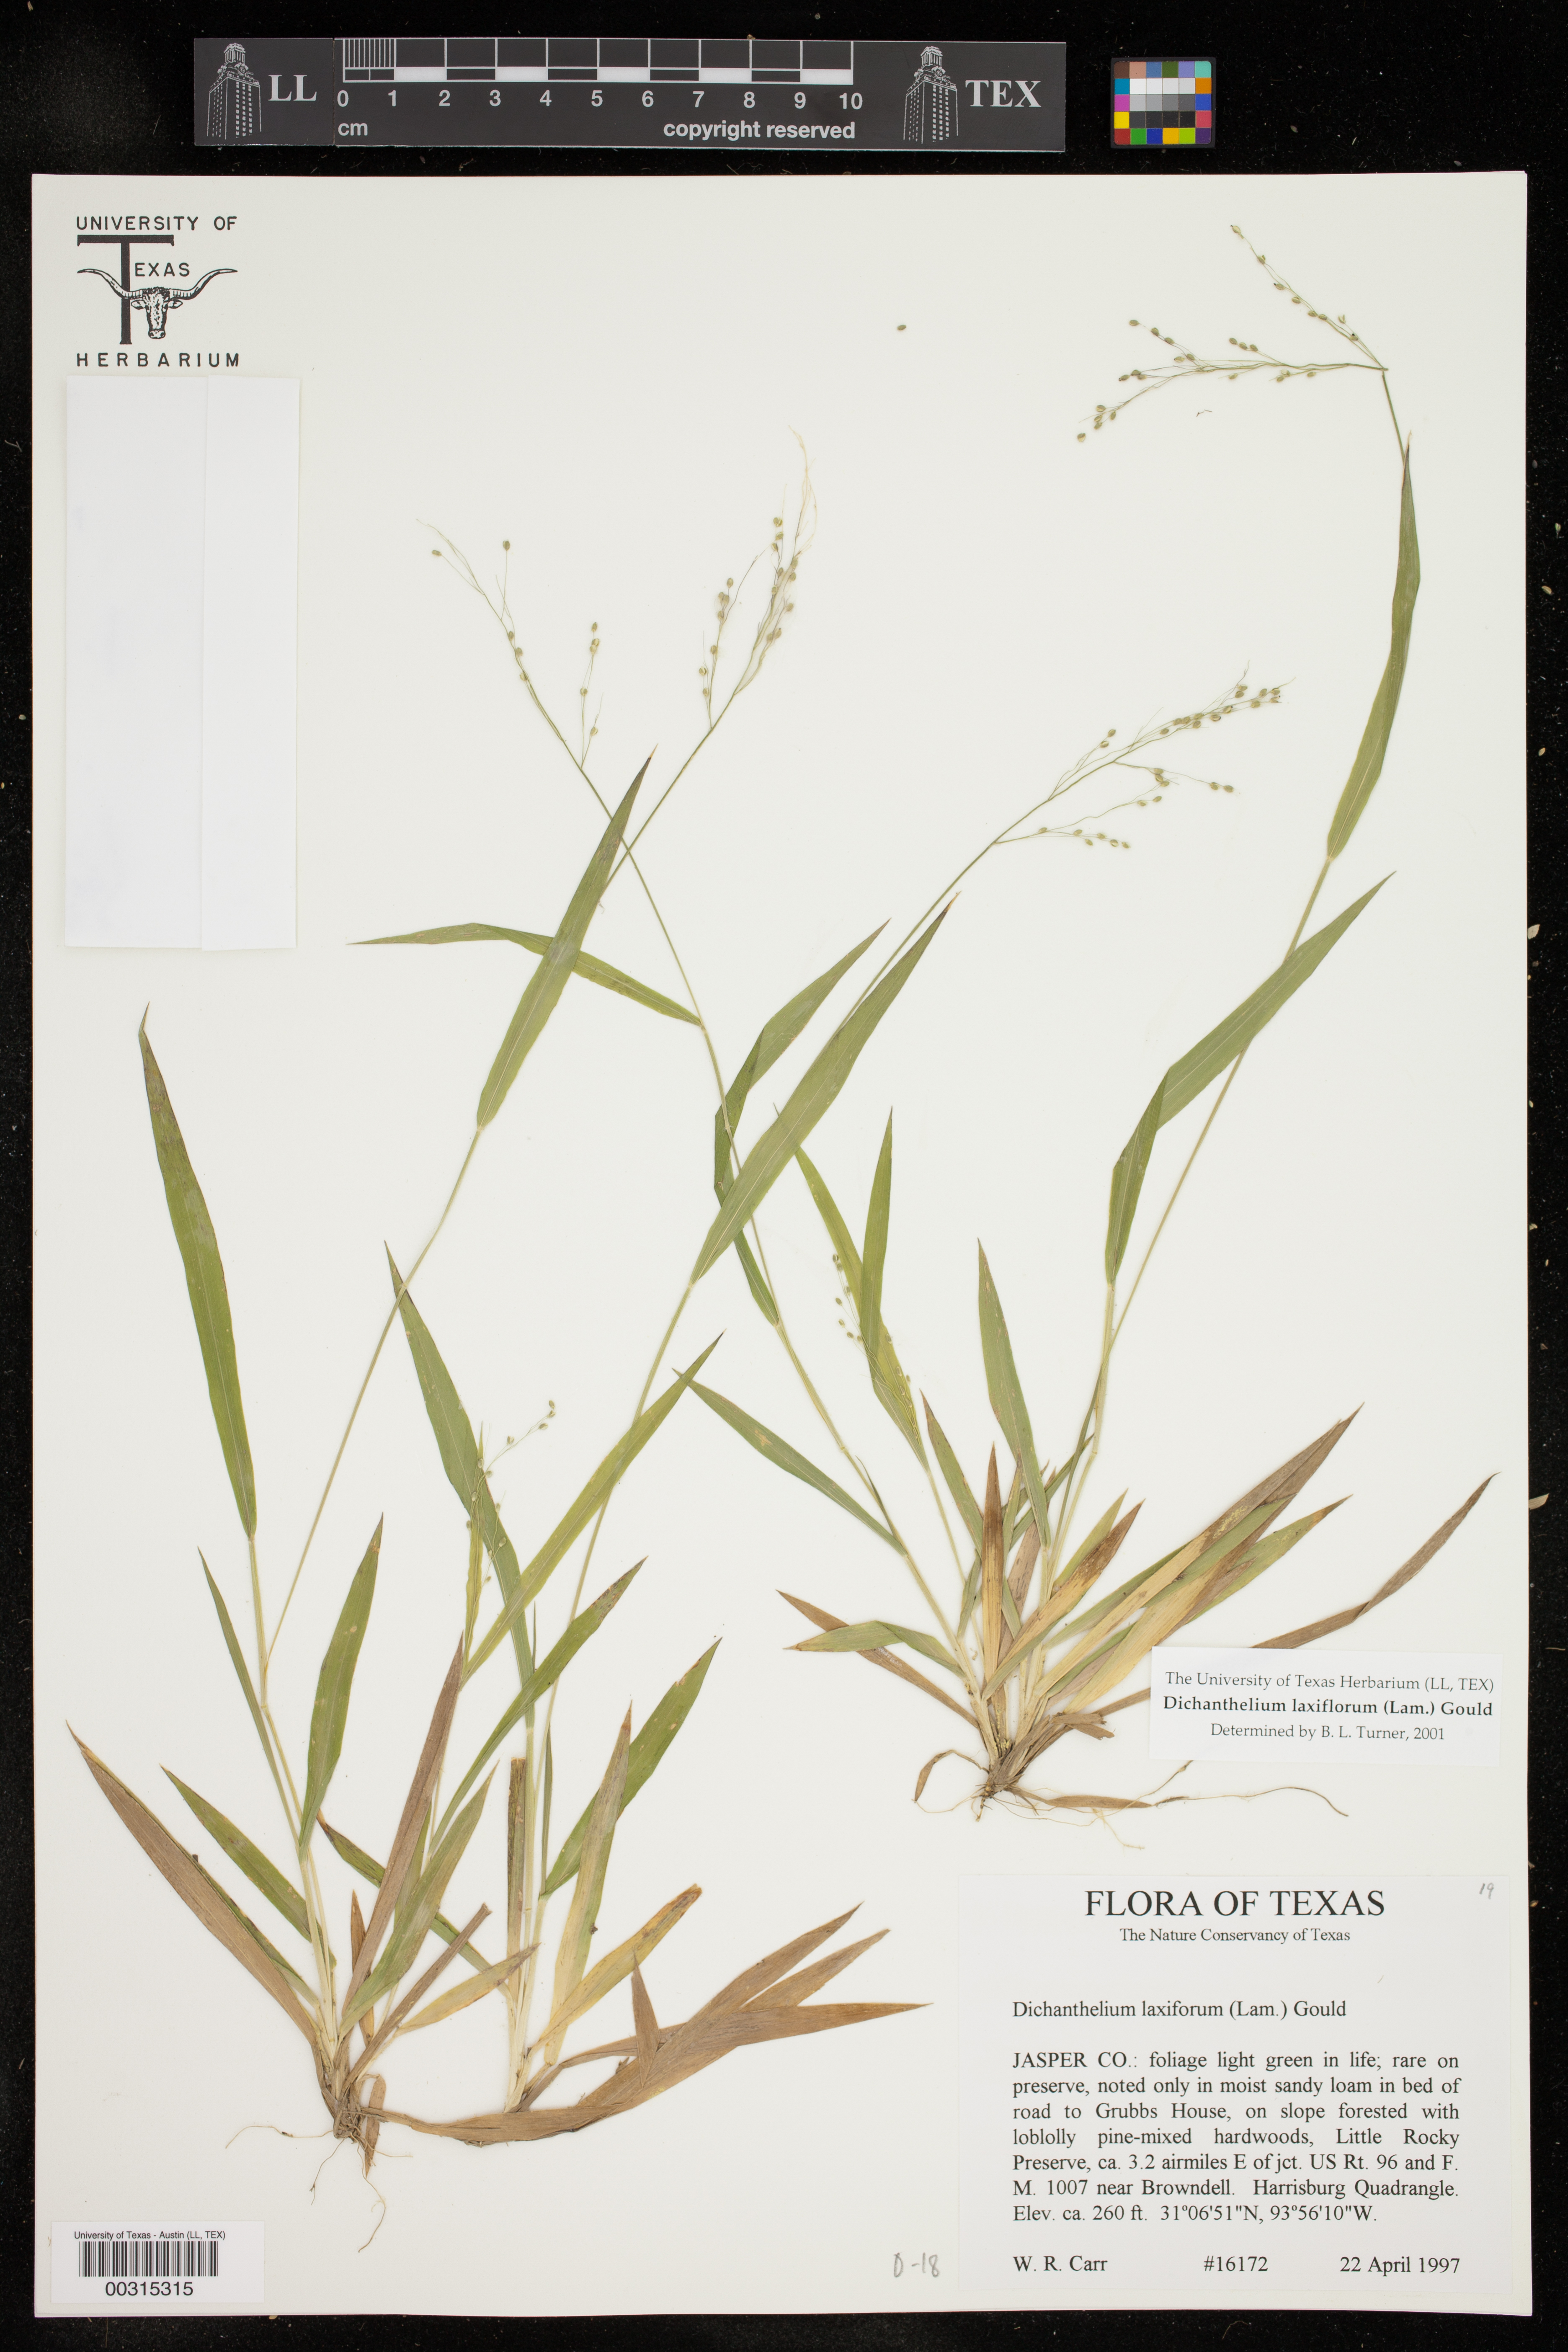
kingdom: Plantae
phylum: Tracheophyta
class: Liliopsida
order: Poales
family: Poaceae
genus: Dichanthelium
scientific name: Dichanthelium laxiflorum
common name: Soft-tuft panic grass
